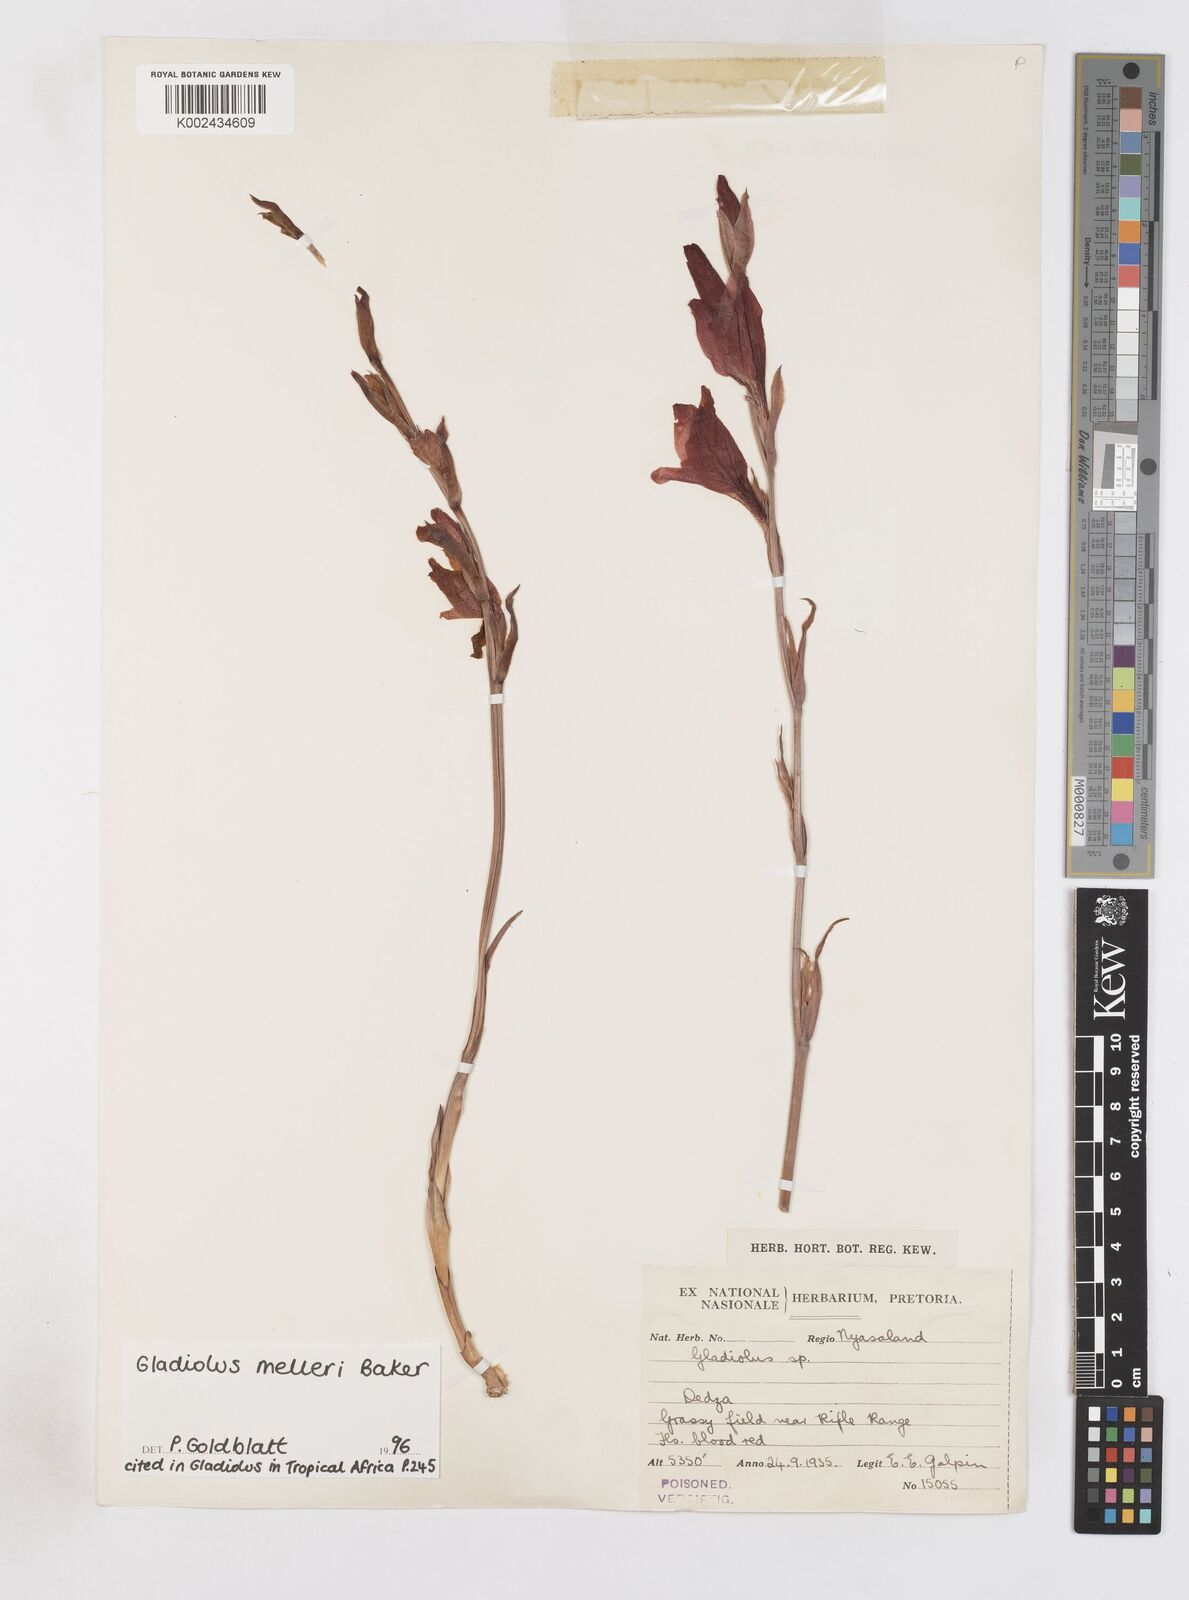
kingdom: Plantae
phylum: Tracheophyta
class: Liliopsida
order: Asparagales
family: Iridaceae
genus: Gladiolus
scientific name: Gladiolus melleri
